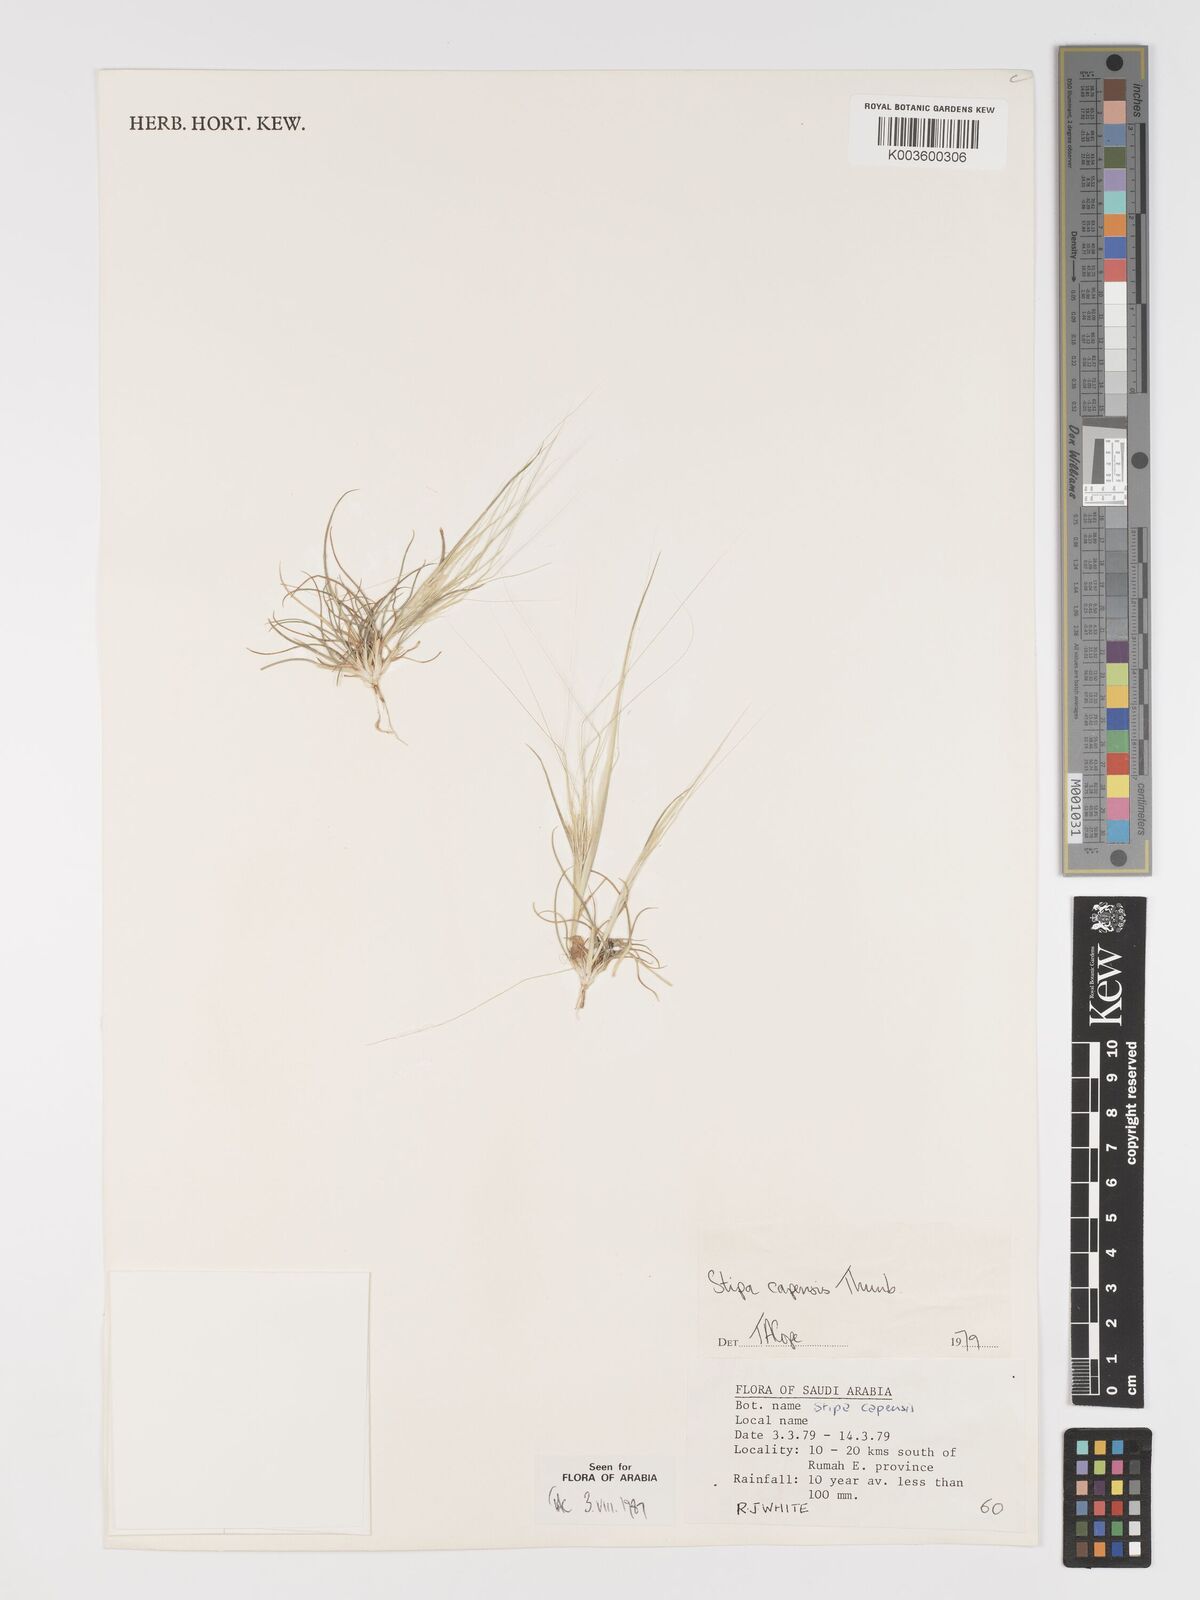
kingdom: Plantae
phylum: Tracheophyta
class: Liliopsida
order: Poales
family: Poaceae
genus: Stipellula
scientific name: Stipellula capensis
